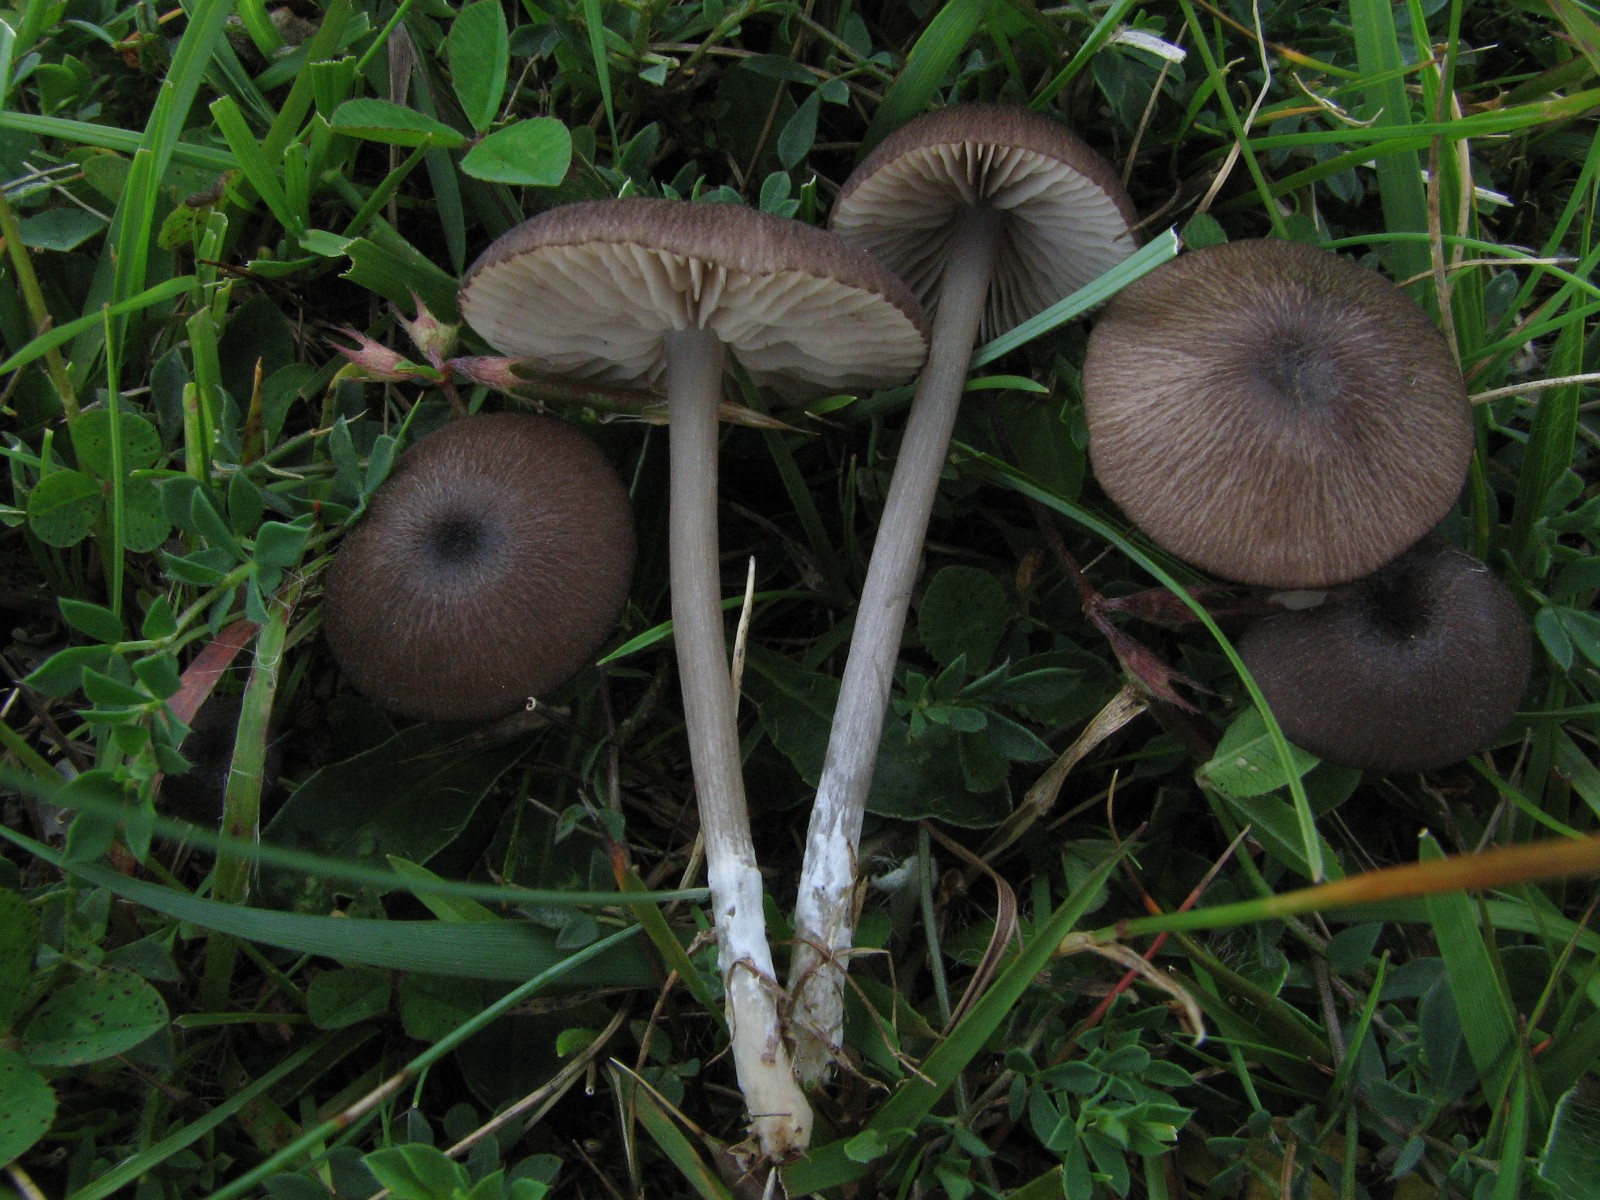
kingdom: Fungi
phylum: Basidiomycota
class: Agaricomycetes
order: Agaricales
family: Entolomataceae
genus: Entoloma
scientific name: Entoloma porphyrogriseum
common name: porfyrgrå rødblad
